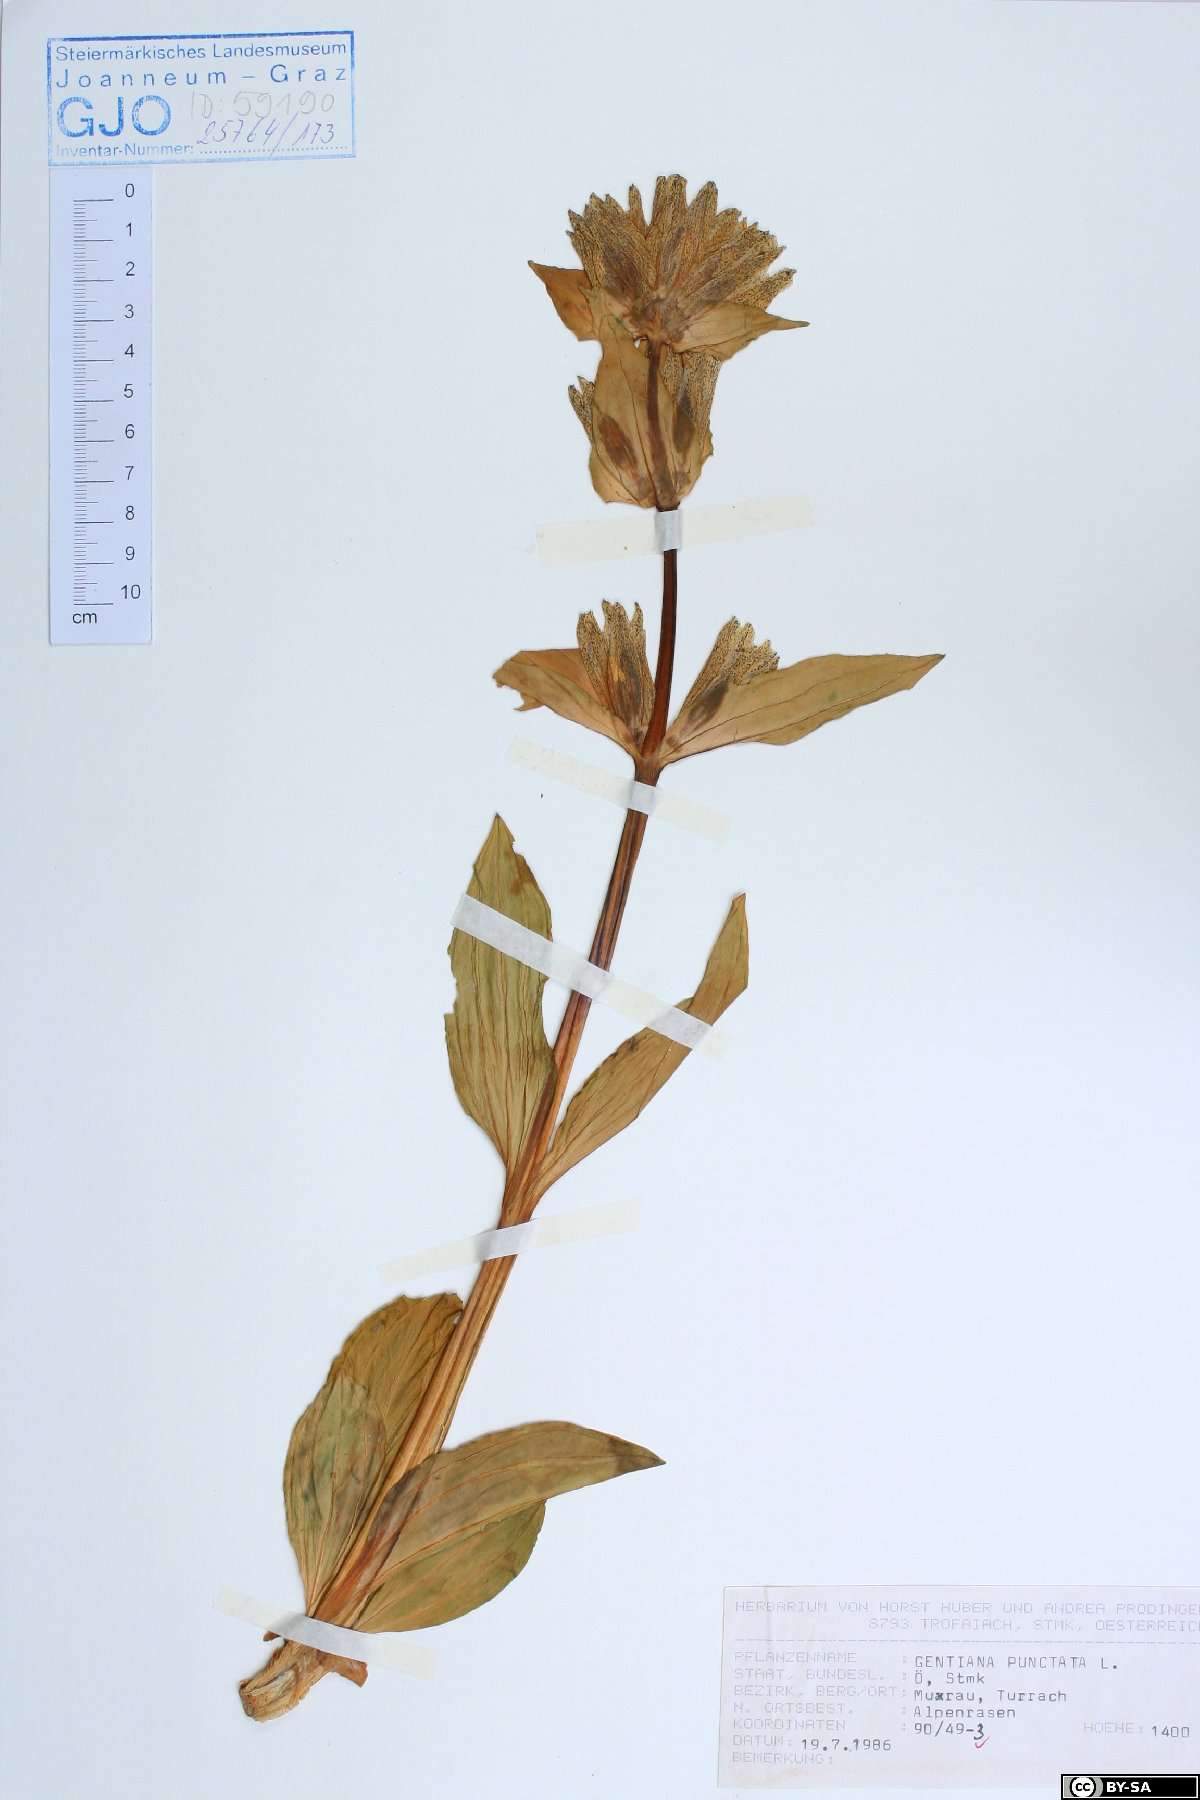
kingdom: Plantae
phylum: Tracheophyta
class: Magnoliopsida
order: Gentianales
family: Gentianaceae
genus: Gentiana
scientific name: Gentiana punctata
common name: Spotted gentian
